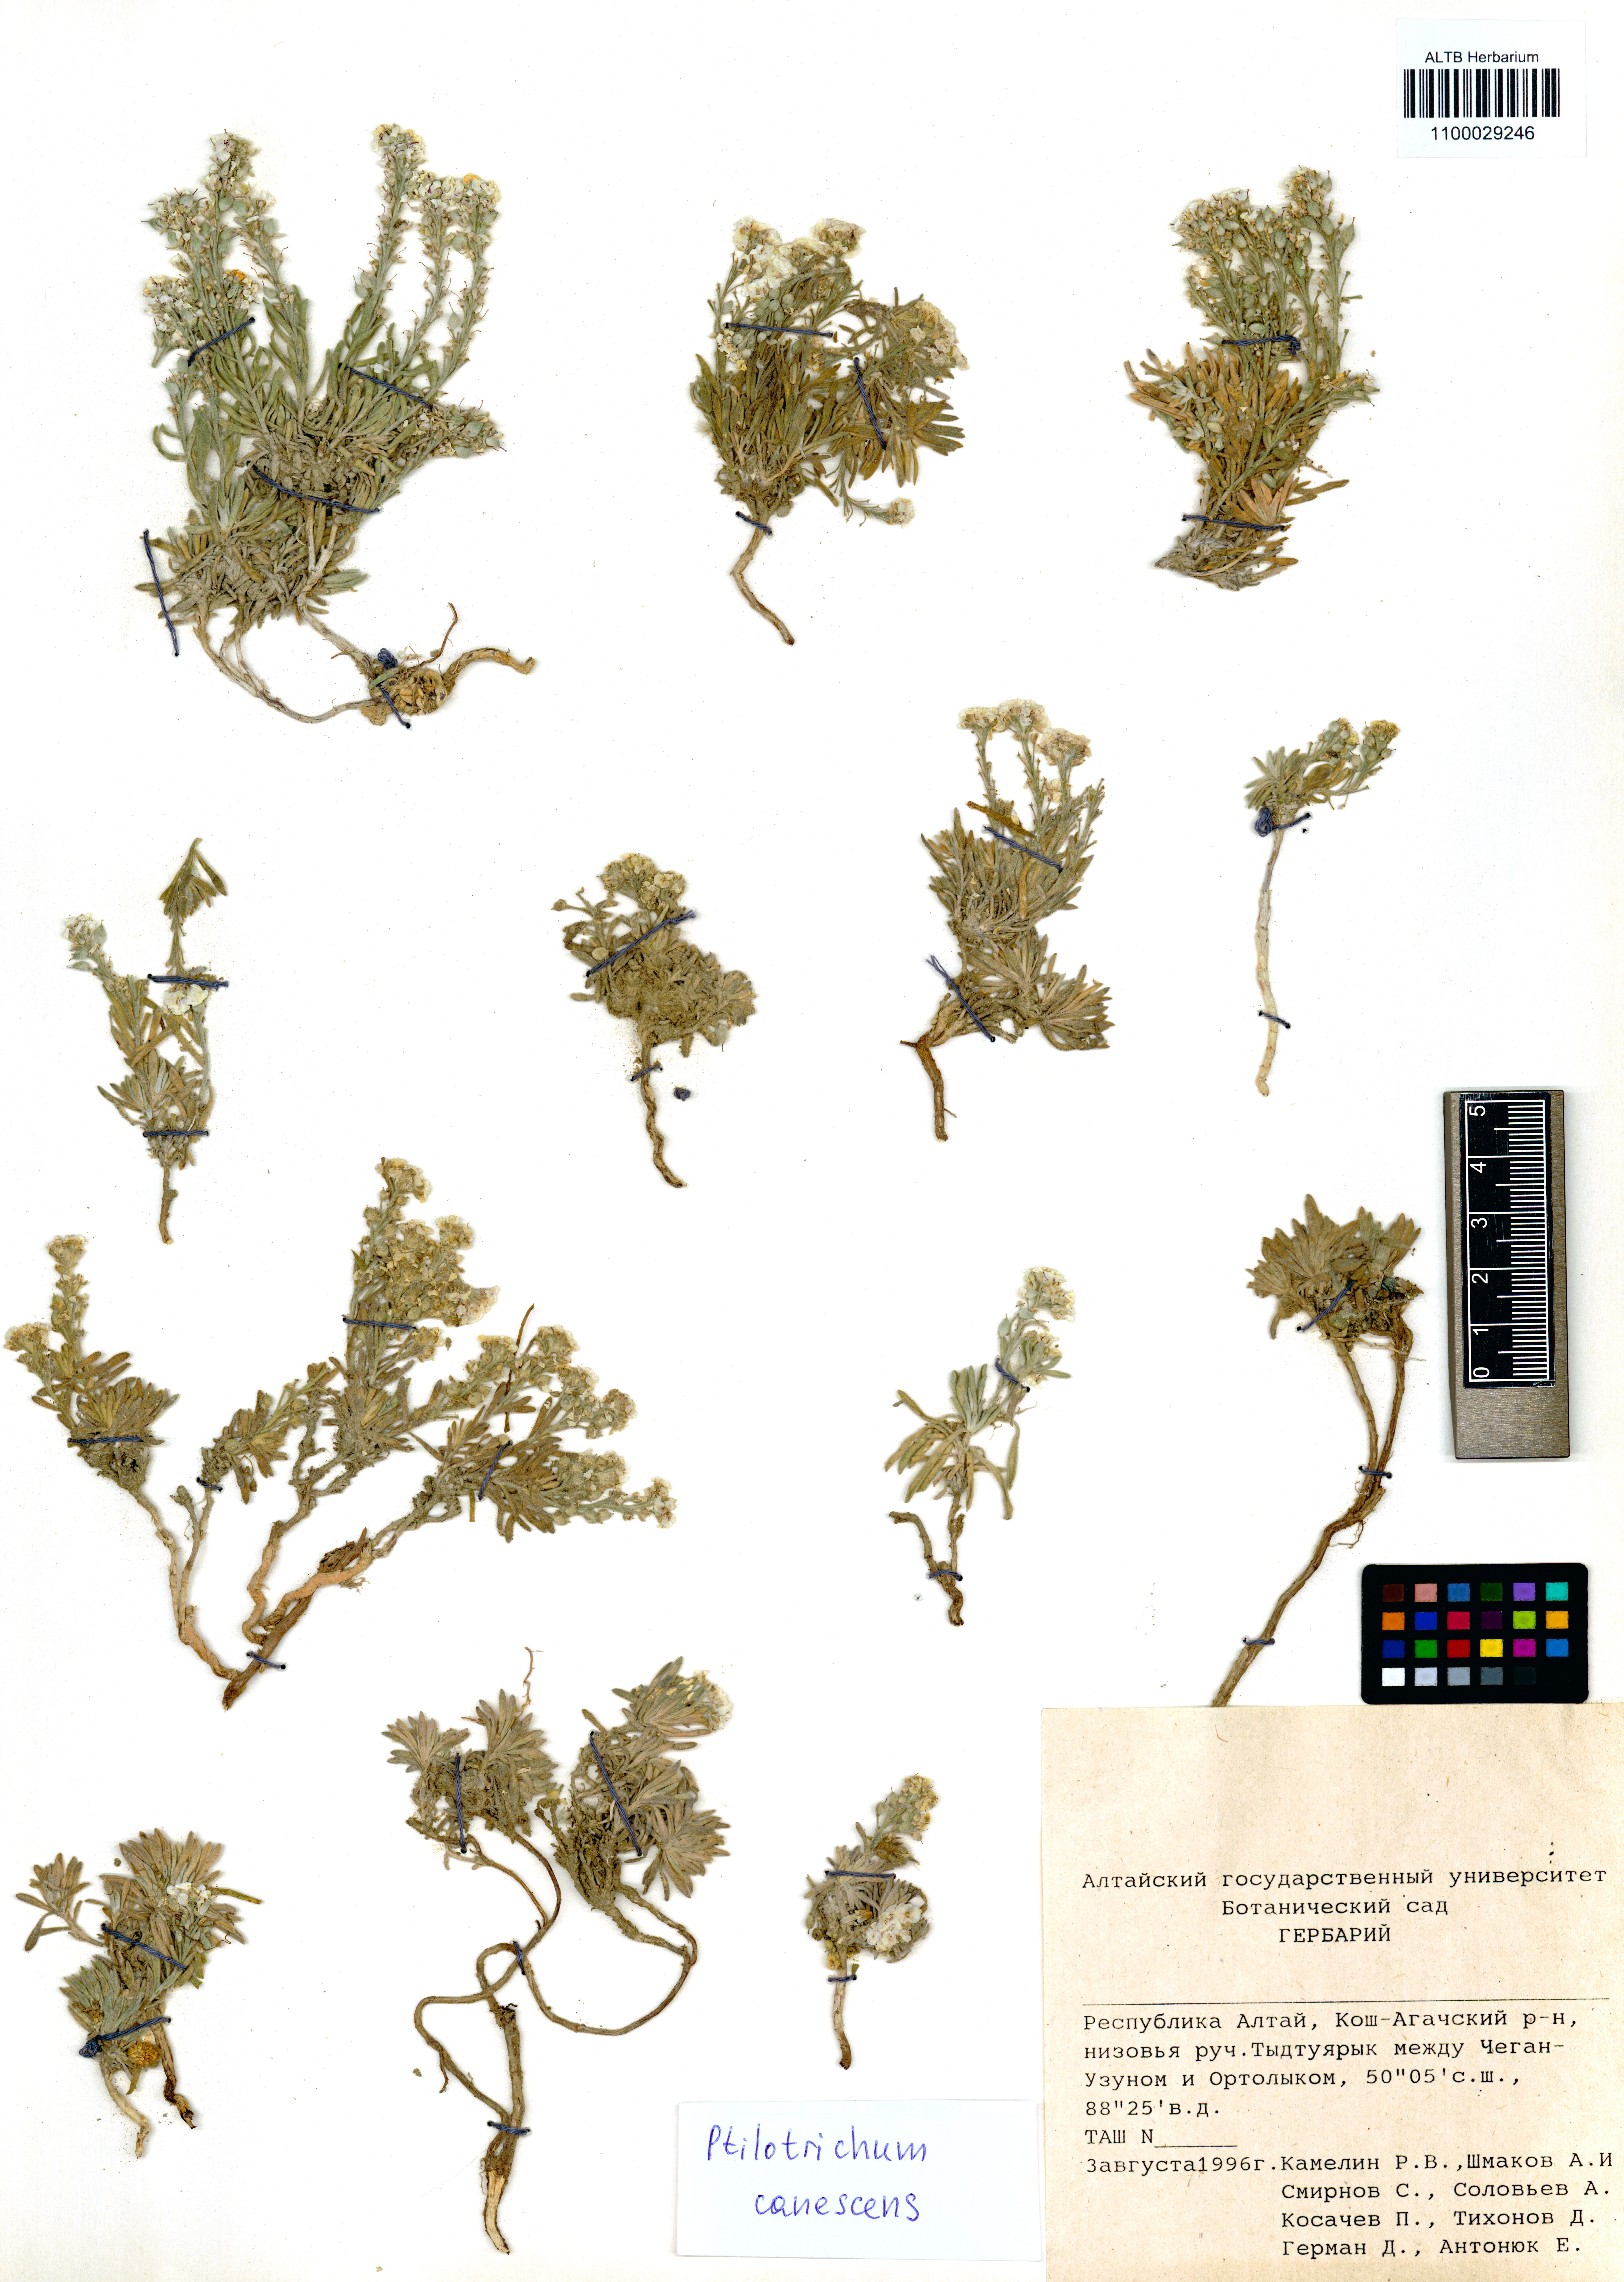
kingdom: Plantae
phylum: Tracheophyta
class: Magnoliopsida
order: Brassicales
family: Brassicaceae
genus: Stevenia
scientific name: Stevenia canescens
